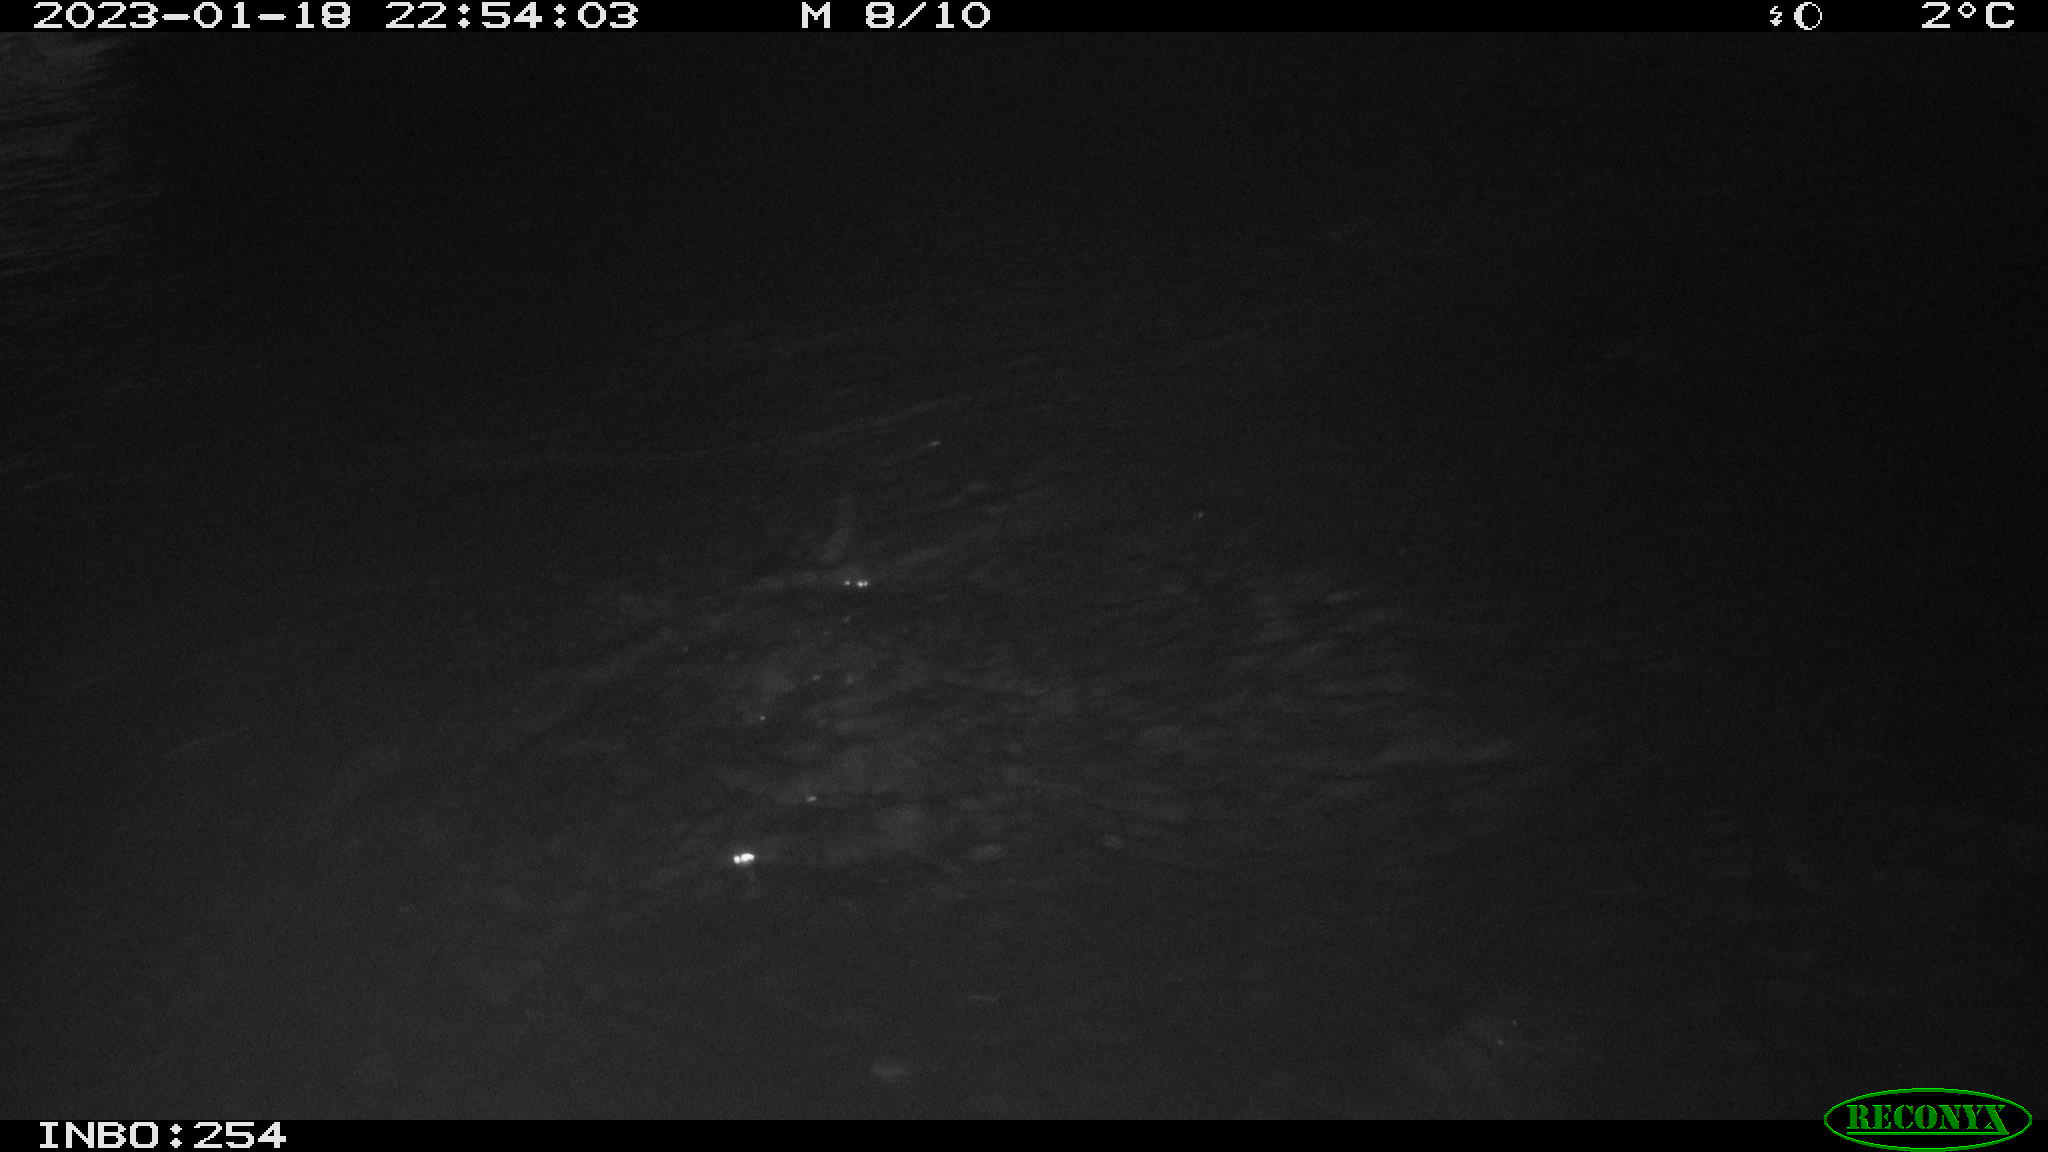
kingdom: Animalia
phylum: Chordata
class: Mammalia
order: Rodentia
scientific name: Rodentia
